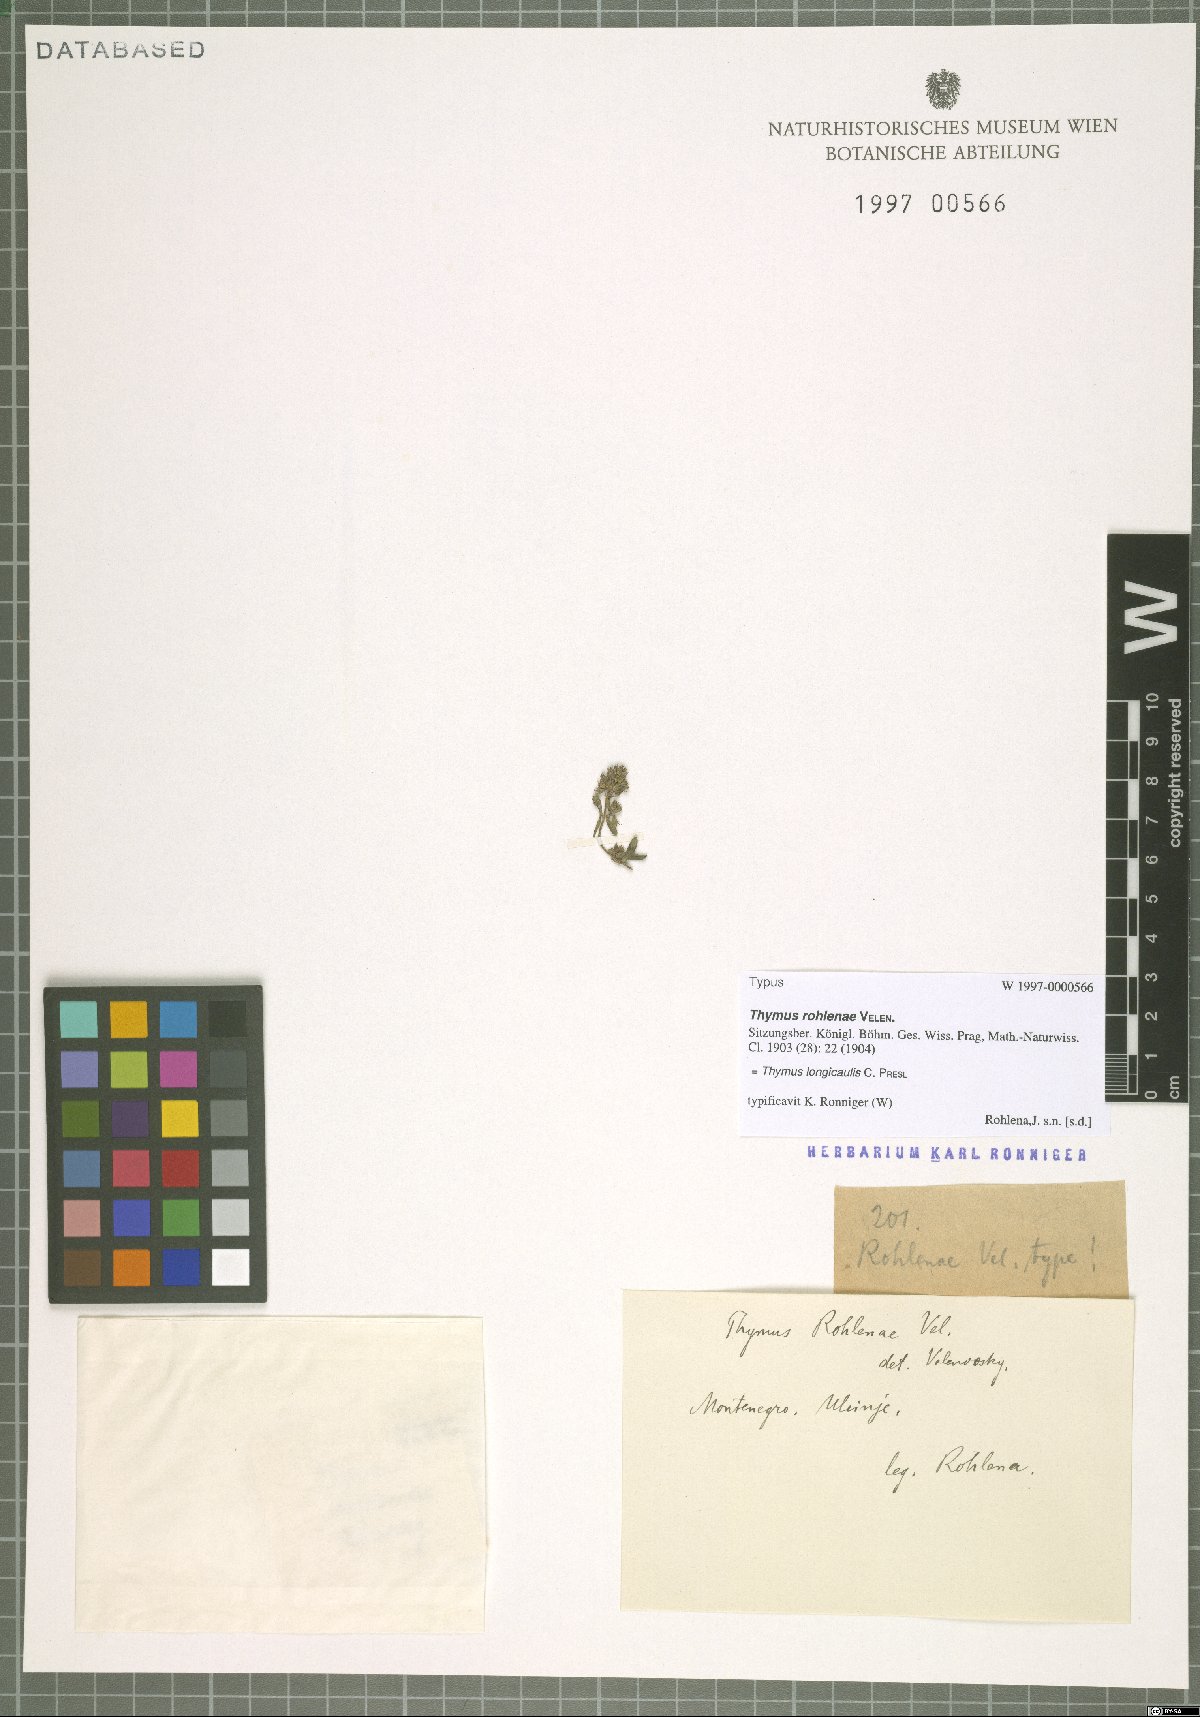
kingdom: Plantae
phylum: Tracheophyta
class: Magnoliopsida
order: Lamiales
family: Lamiaceae
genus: Thymus
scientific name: Thymus longicaulis
